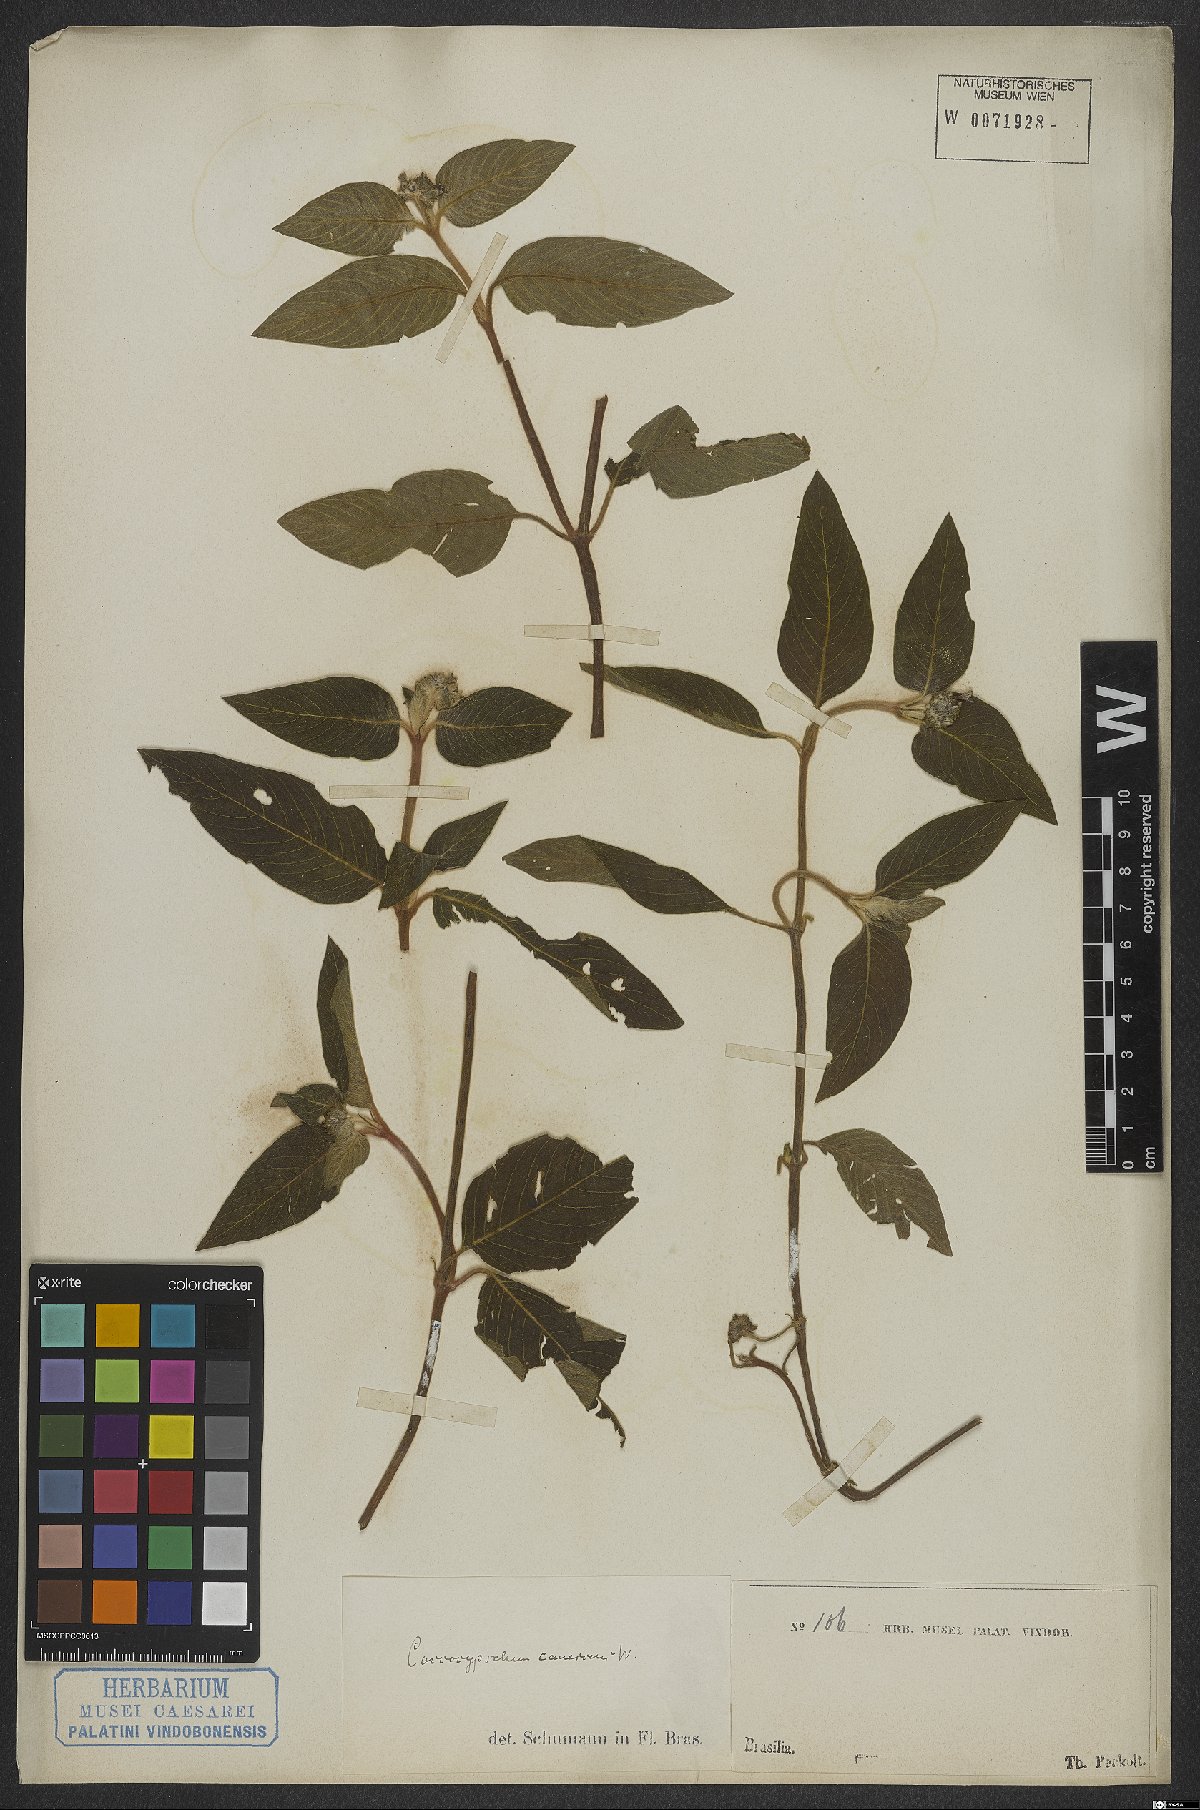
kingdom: Plantae
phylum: Tracheophyta
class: Magnoliopsida
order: Gentianales
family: Rubiaceae
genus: Coccocypselum
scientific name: Coccocypselum lanceolatum
